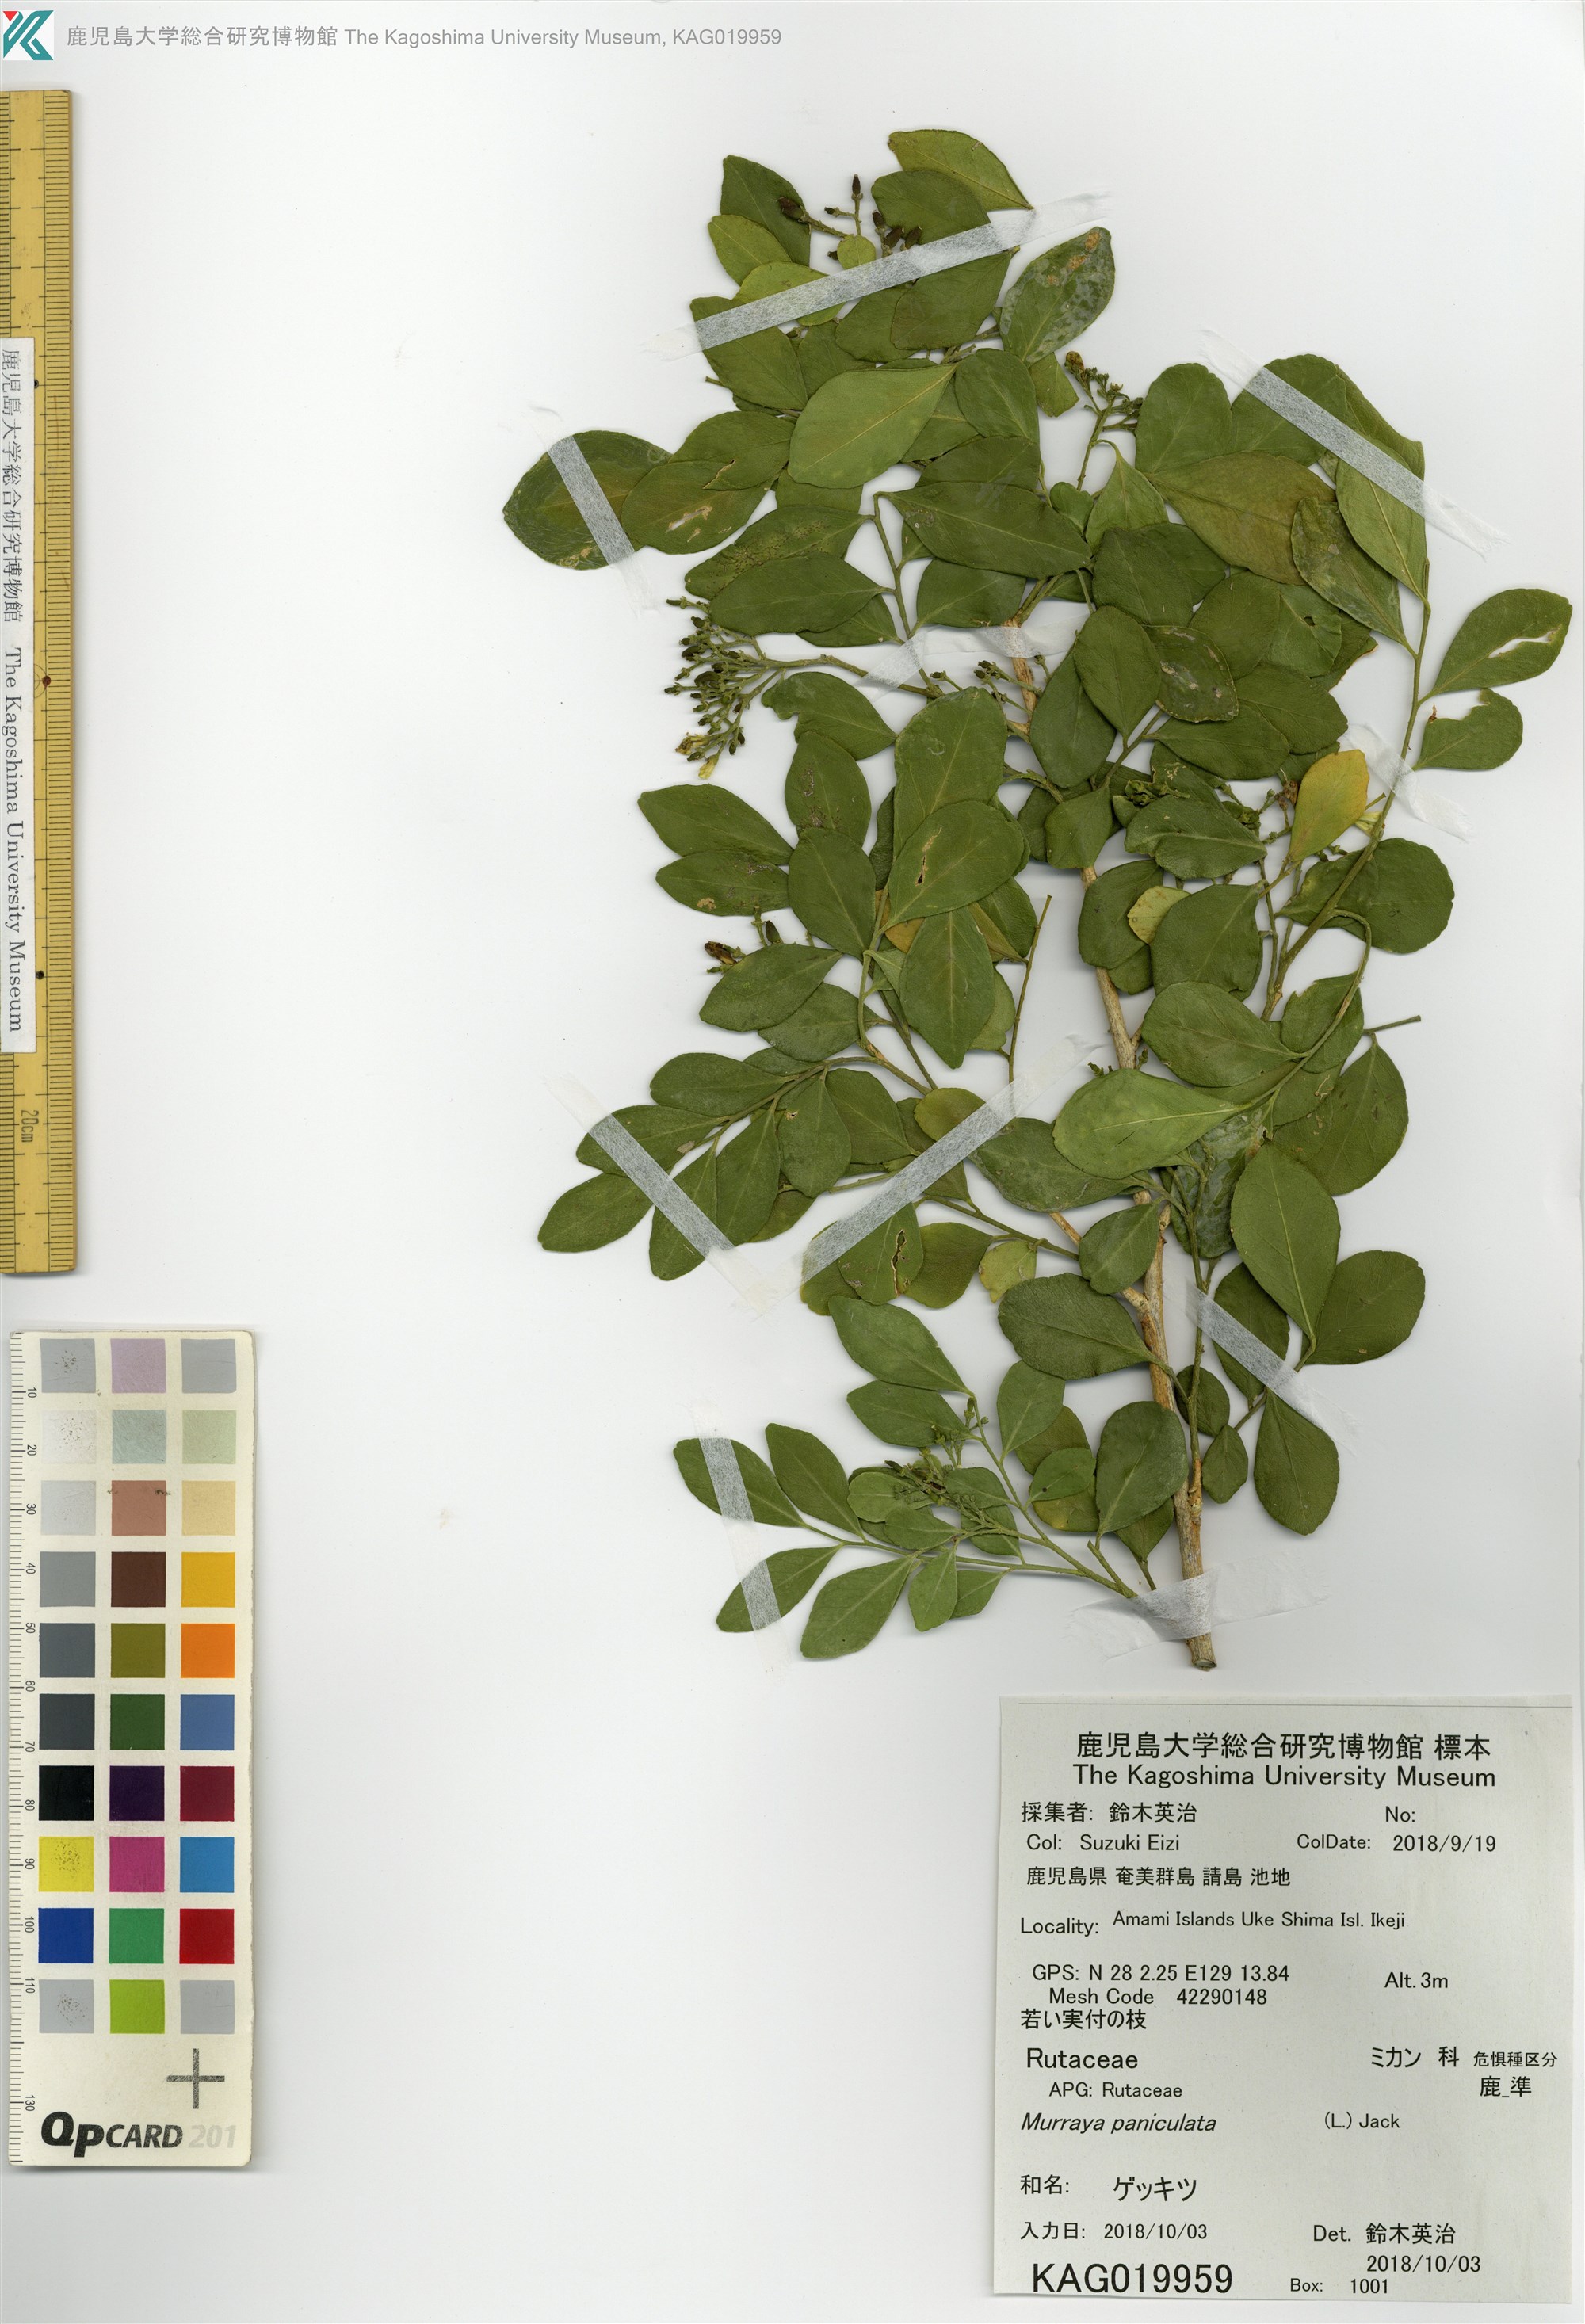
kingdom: Plantae
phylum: Tracheophyta
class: Magnoliopsida
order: Sapindales
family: Rutaceae
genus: Murraya
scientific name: Murraya paniculata
